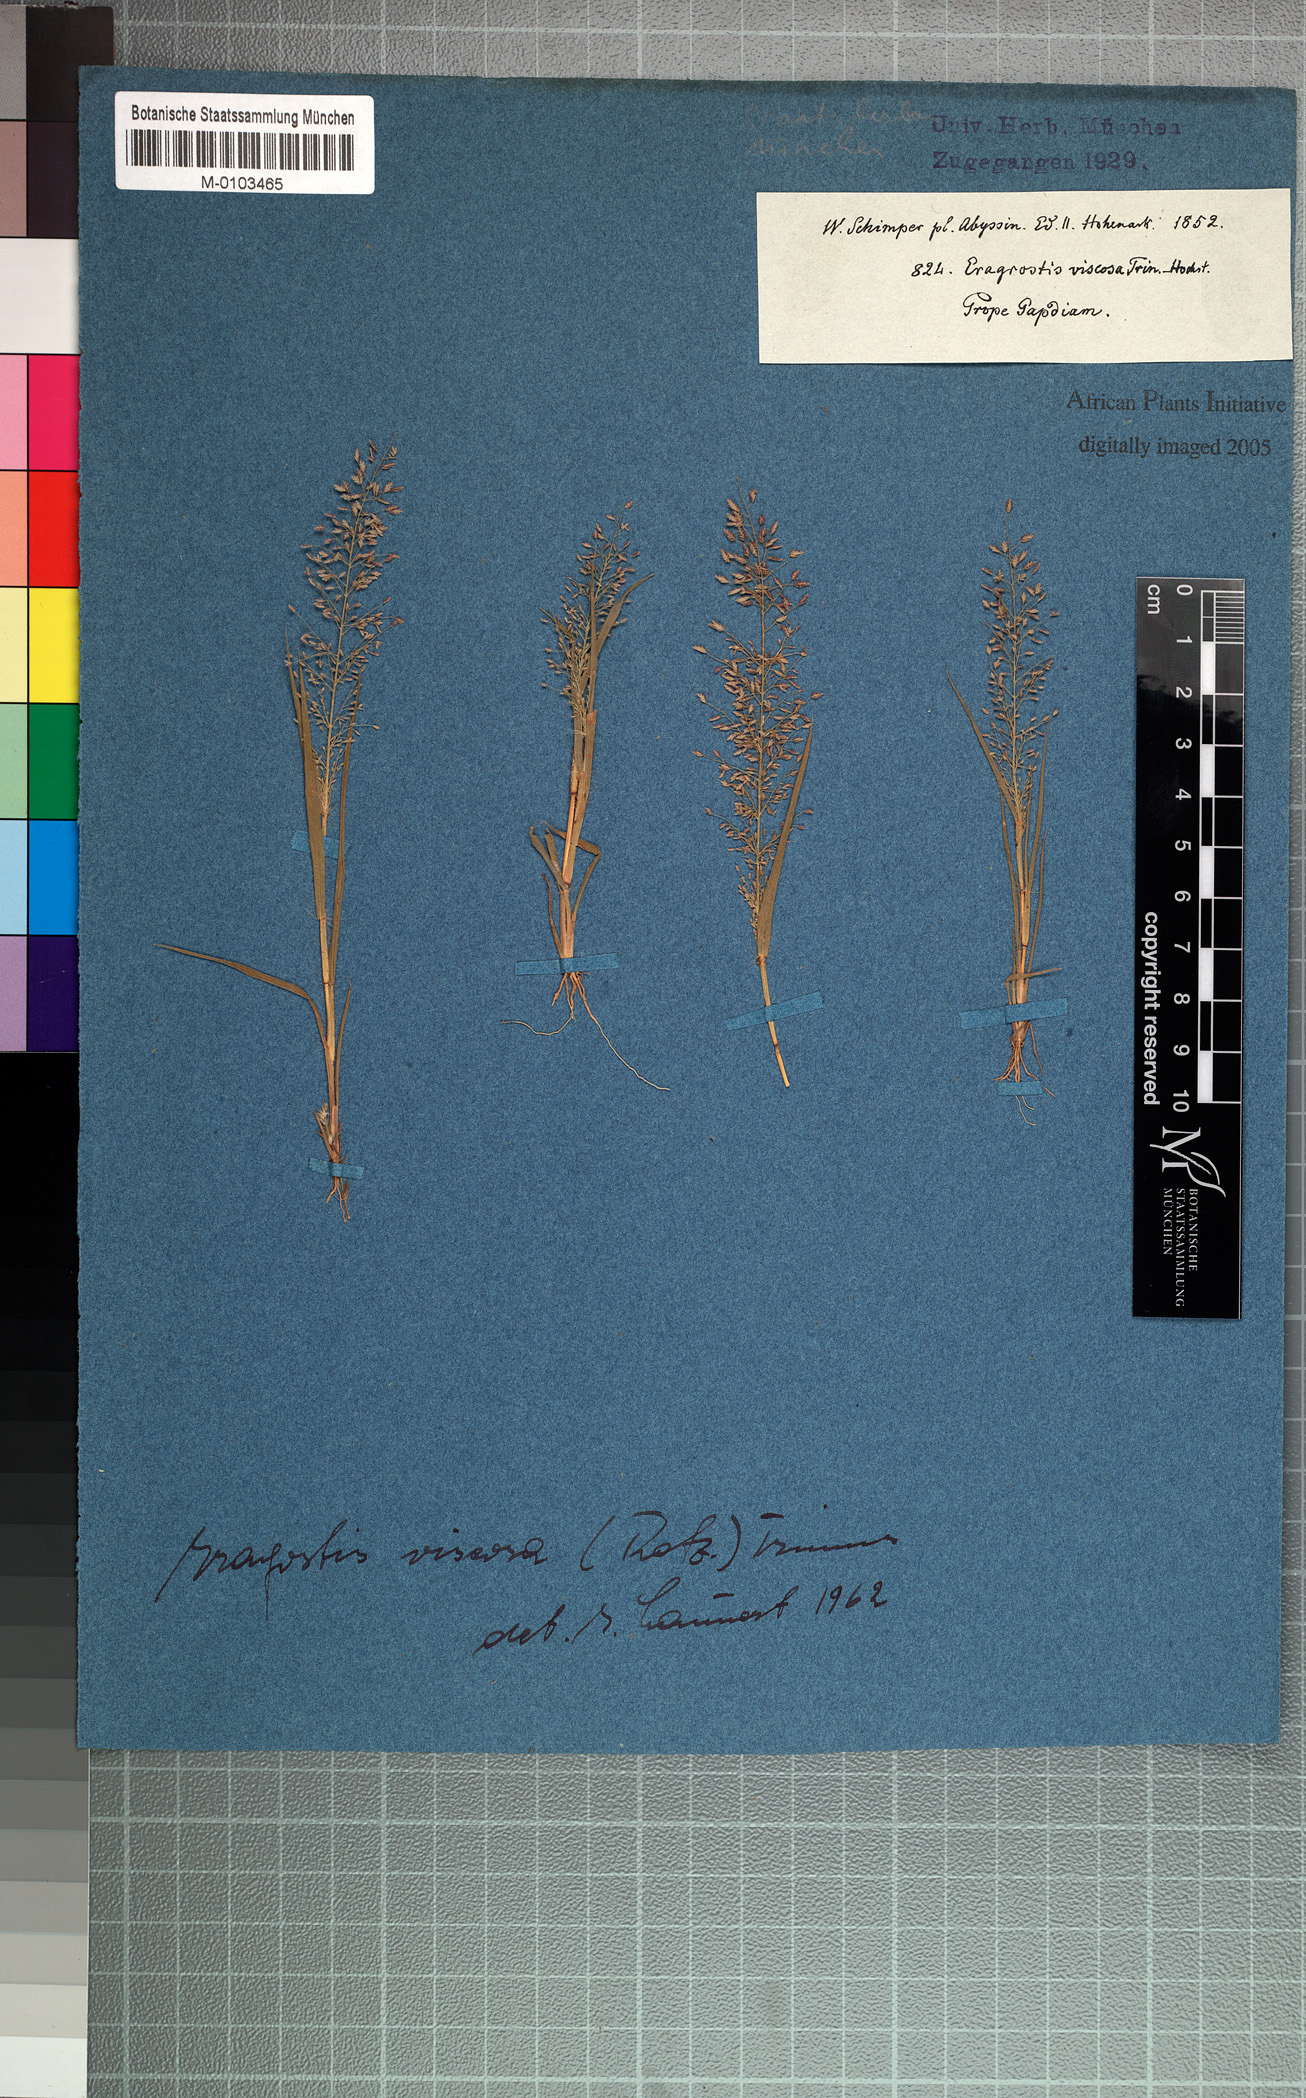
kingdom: Plantae
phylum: Tracheophyta
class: Liliopsida
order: Poales
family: Poaceae
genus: Eragrostis
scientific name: Eragrostis viscosa
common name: Sticky love grass
